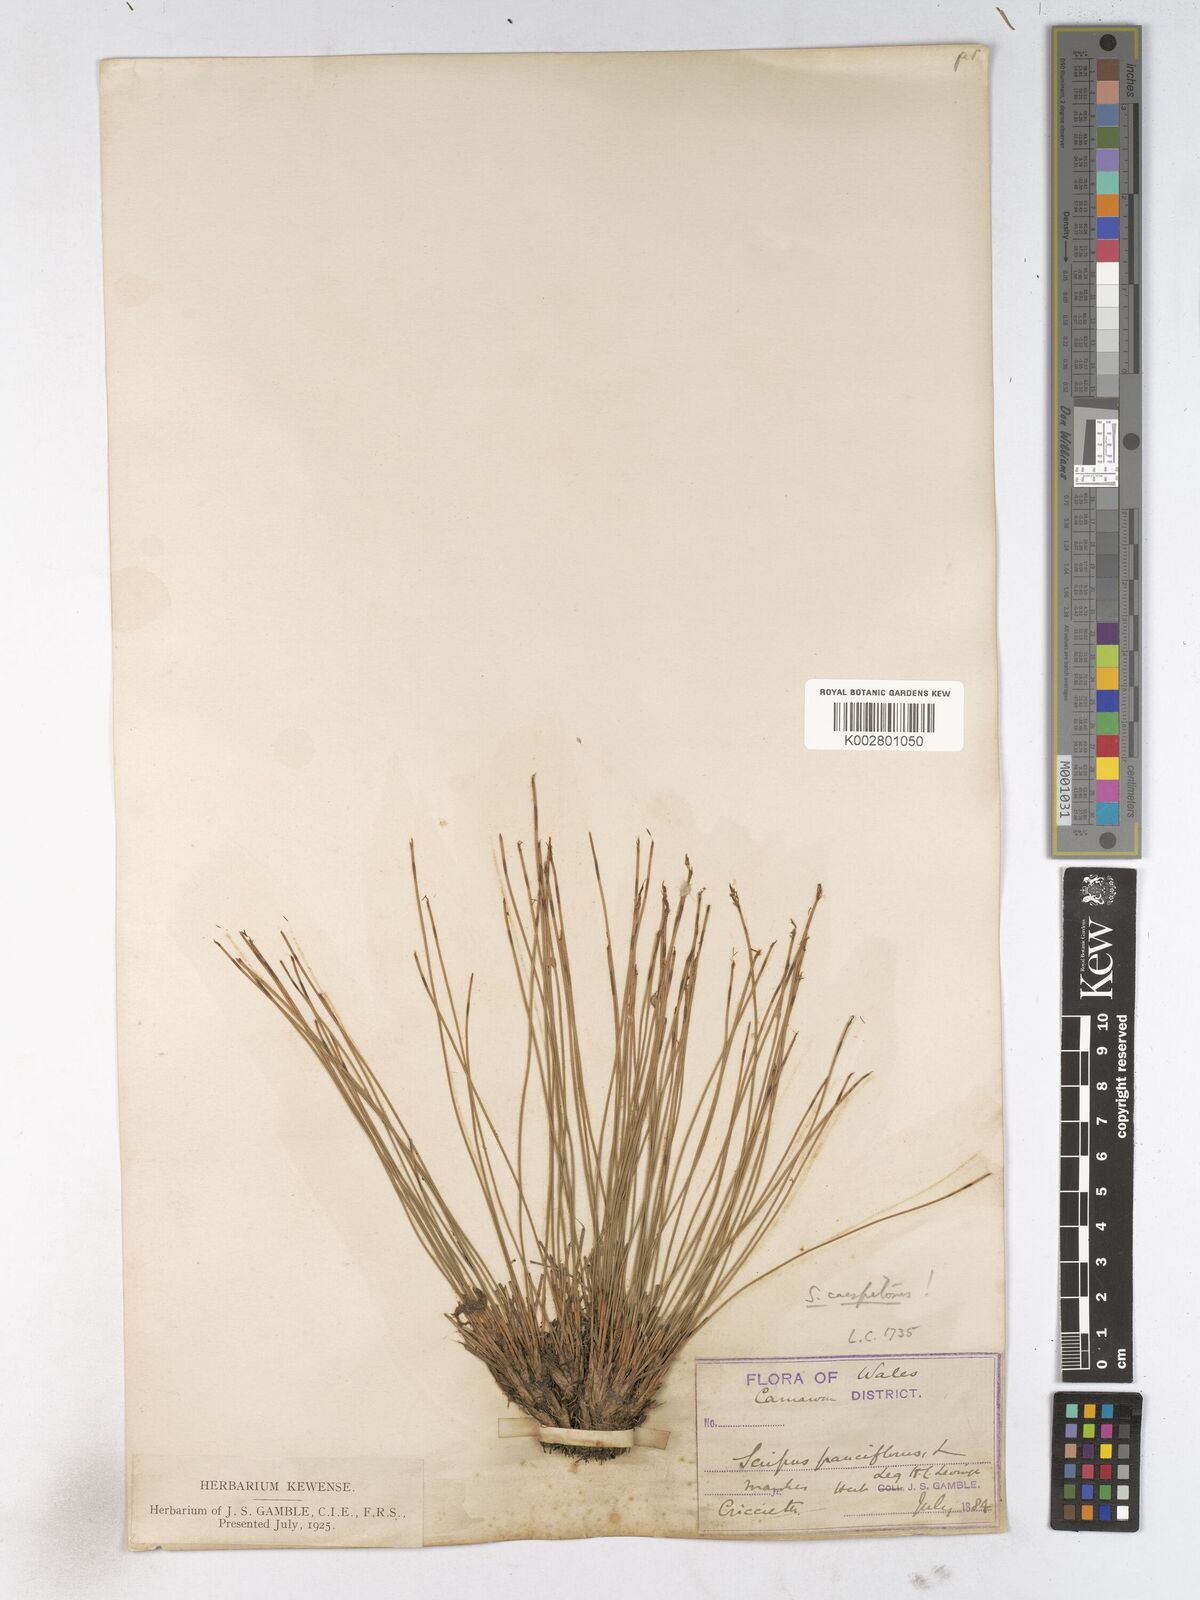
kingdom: Plantae
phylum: Tracheophyta
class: Liliopsida
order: Poales
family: Cyperaceae
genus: Trichophorum
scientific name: Trichophorum cespitosum
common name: Cespitose bulrush
